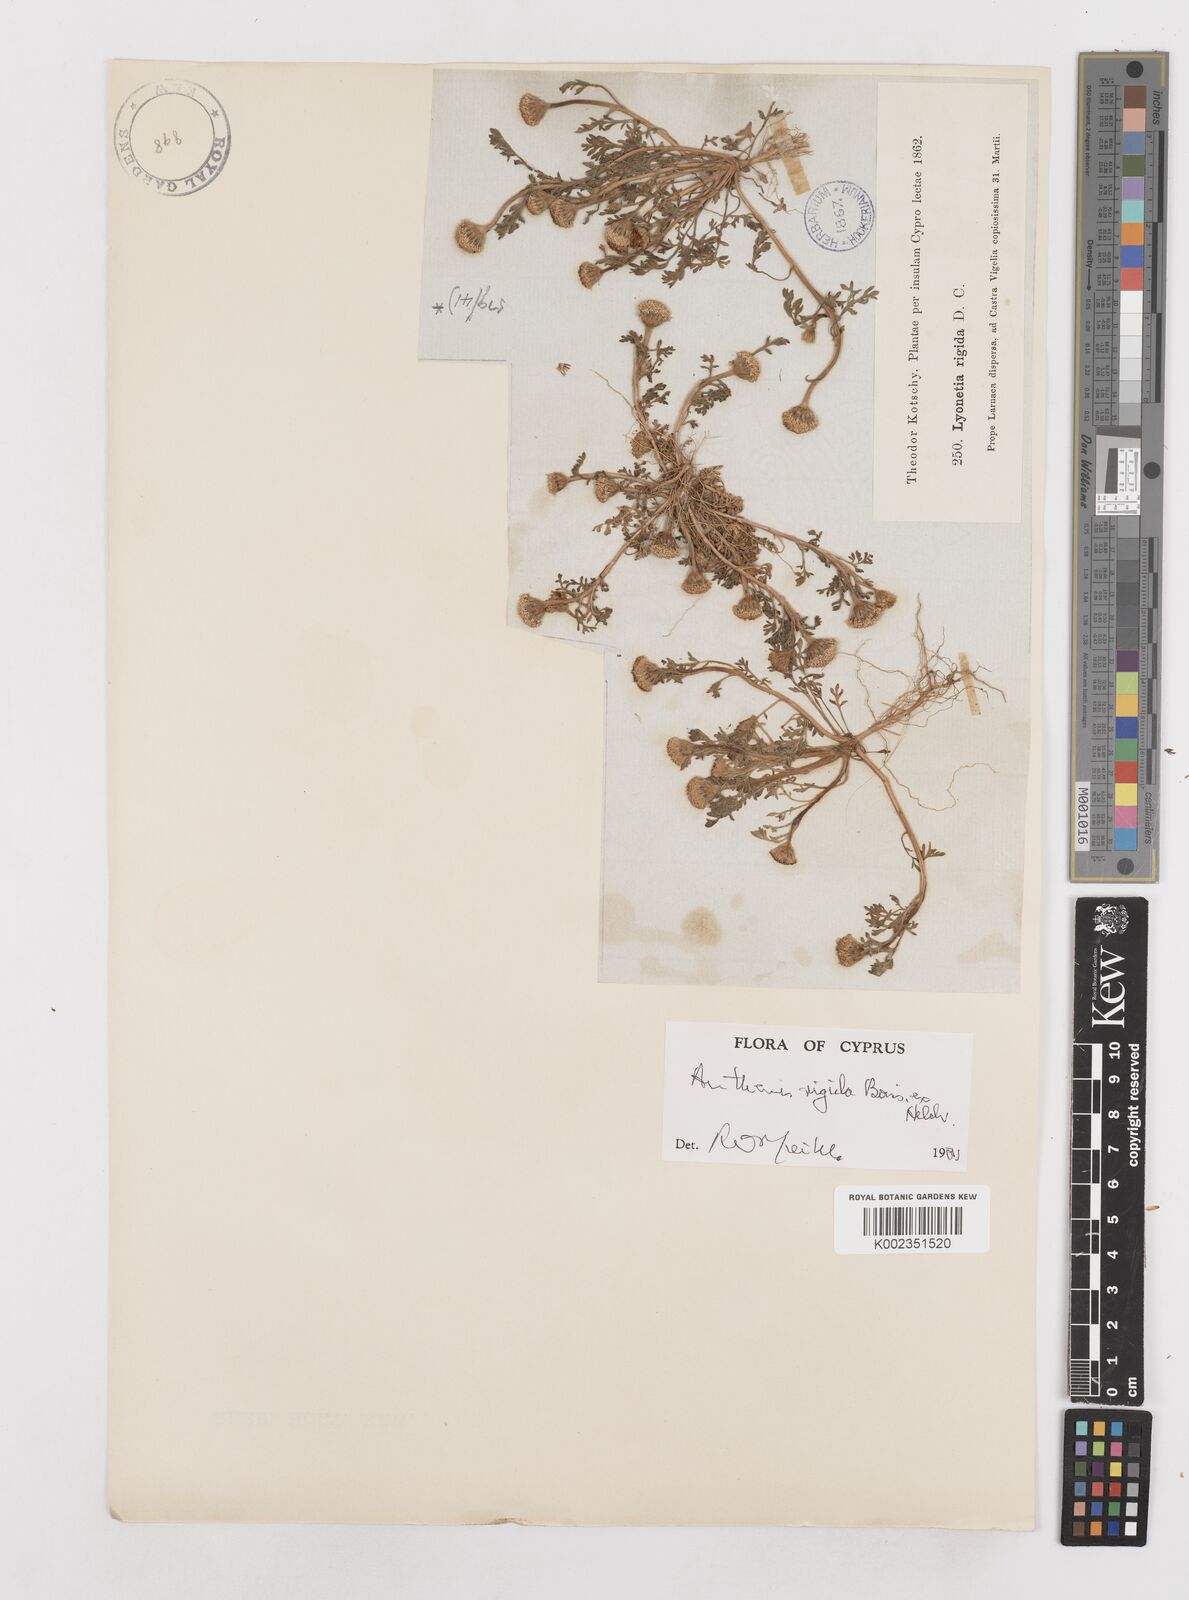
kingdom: Plantae
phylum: Tracheophyta
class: Magnoliopsida
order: Asterales
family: Asteraceae
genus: Anthemis
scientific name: Anthemis rigida
